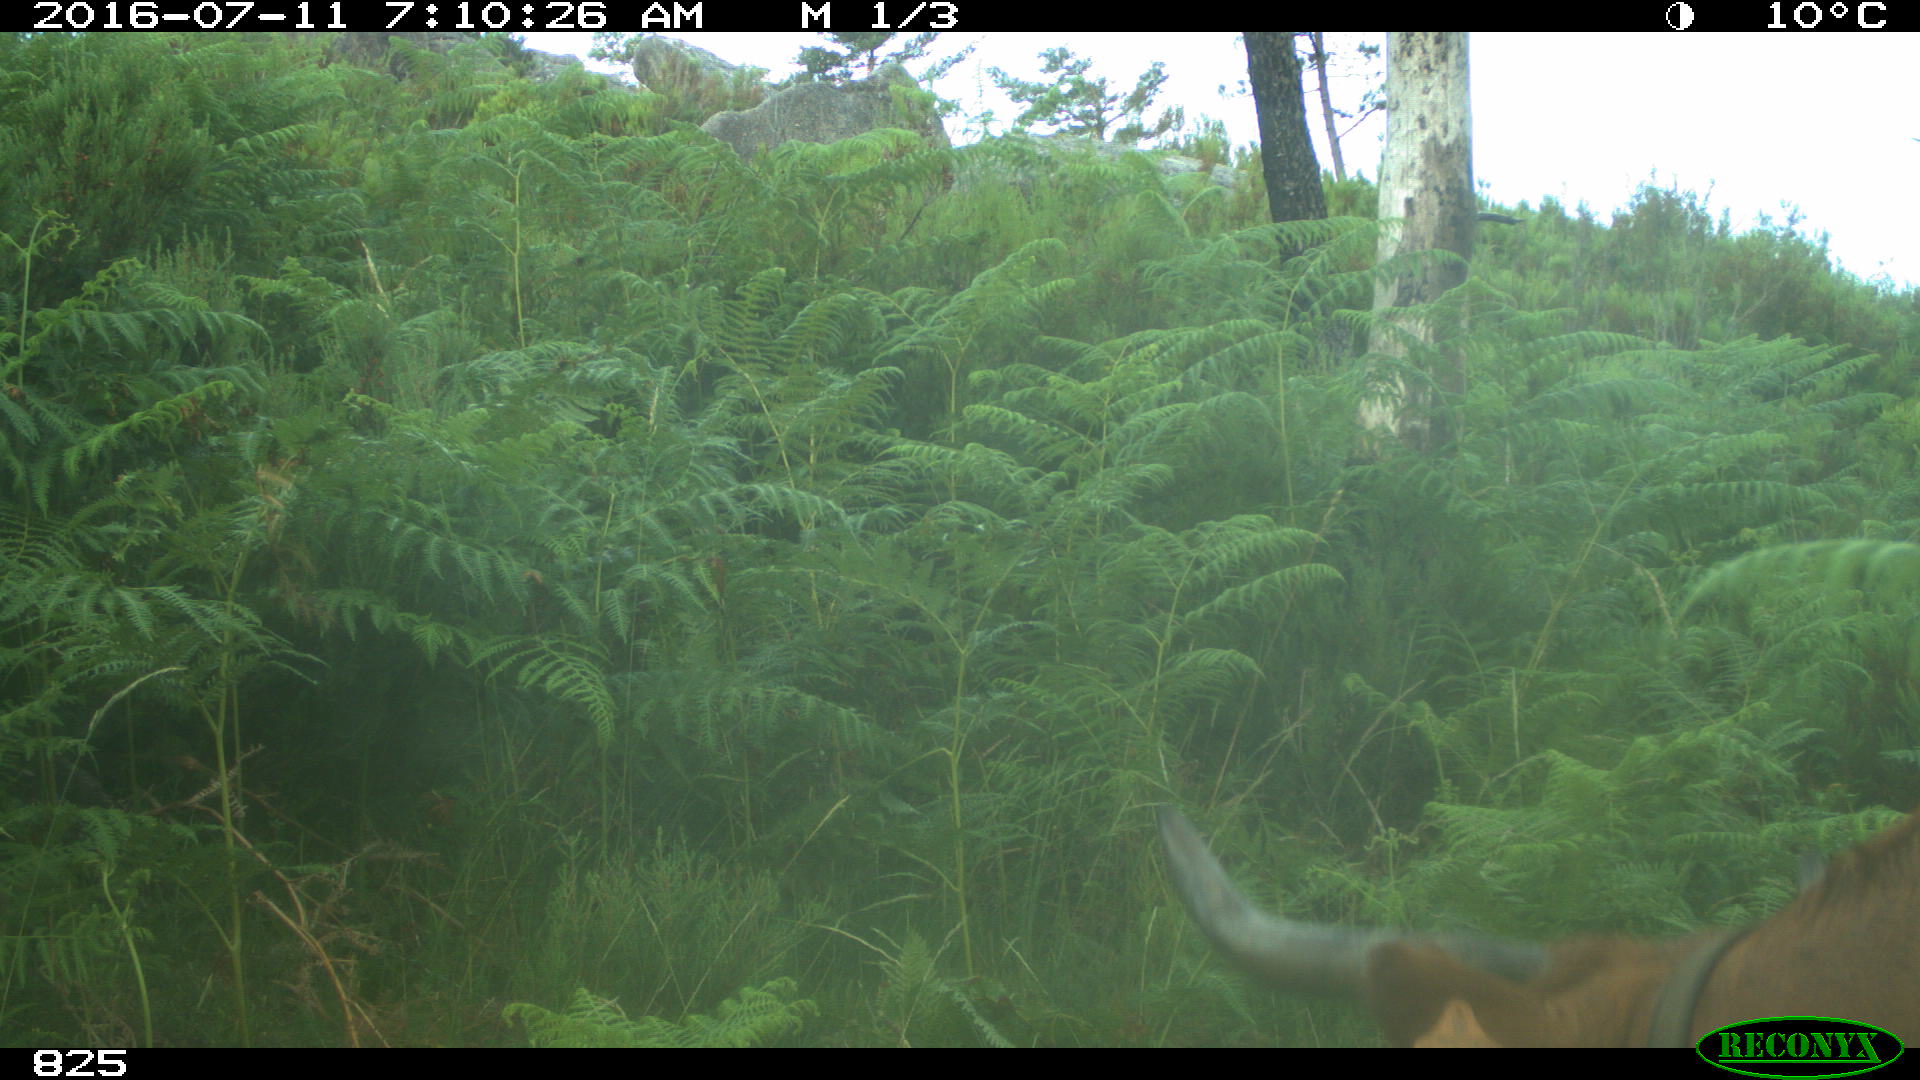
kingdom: Animalia
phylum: Chordata
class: Mammalia
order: Artiodactyla
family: Bovidae
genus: Bos
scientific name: Bos taurus
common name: Domesticated cattle
